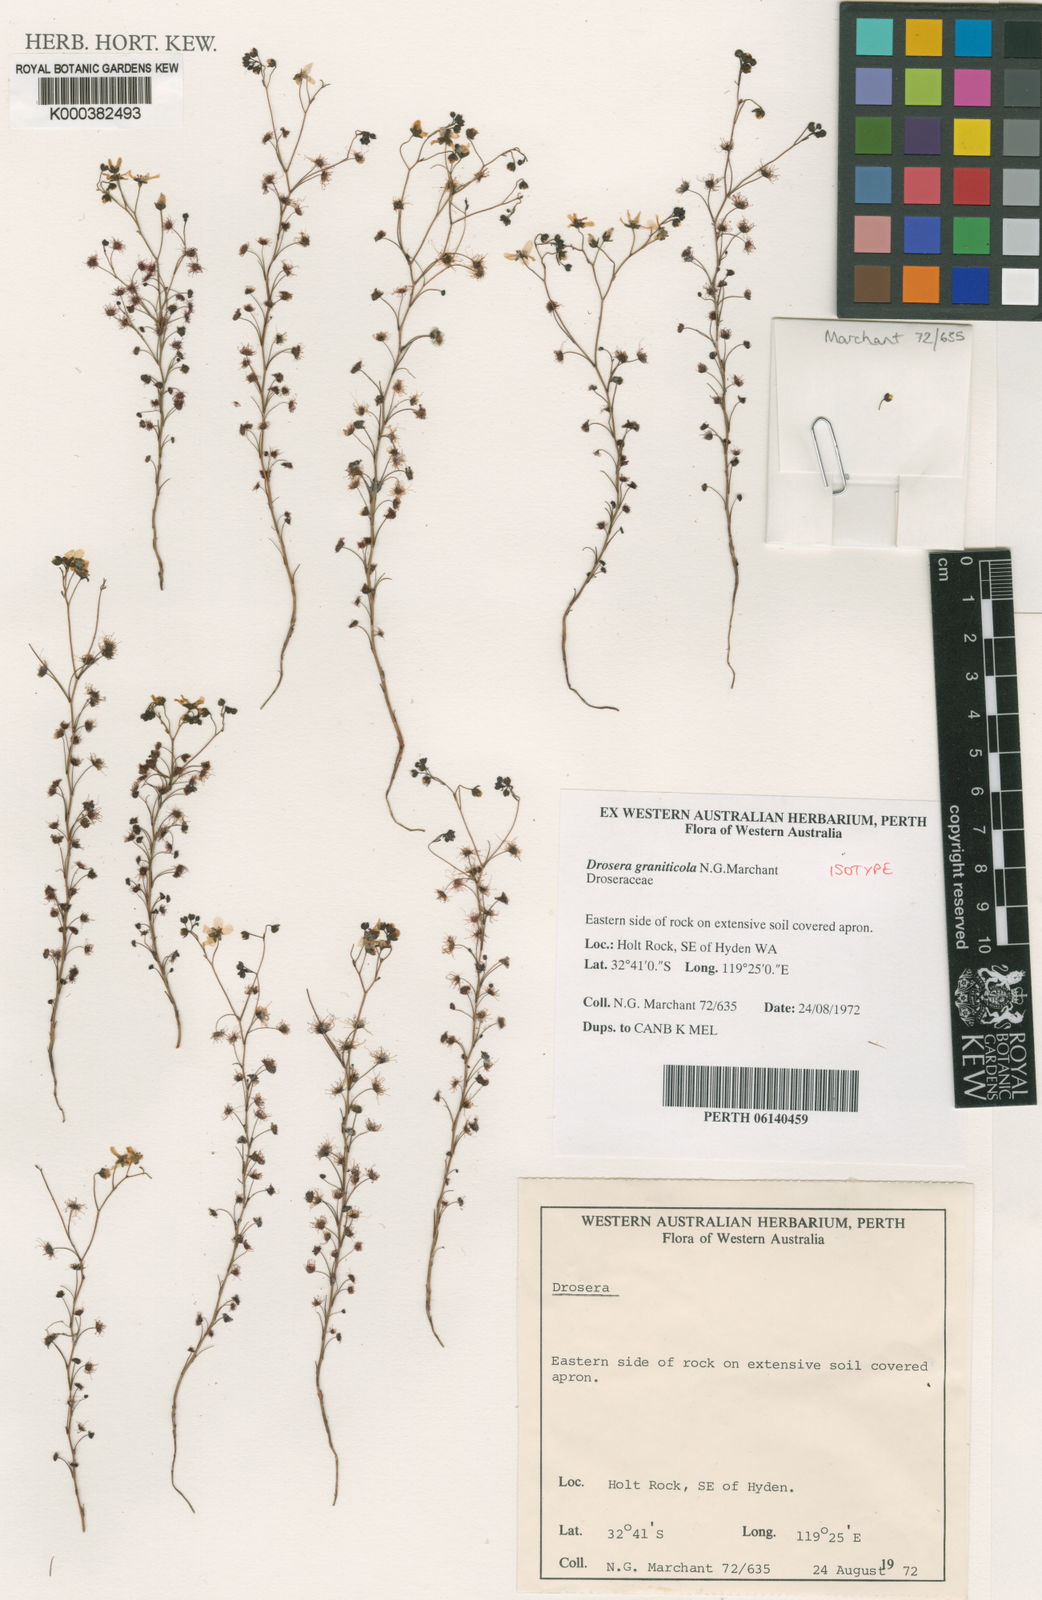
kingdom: Plantae
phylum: Tracheophyta
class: Magnoliopsida
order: Caryophyllales
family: Droseraceae
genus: Drosera
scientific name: Drosera graniticola
